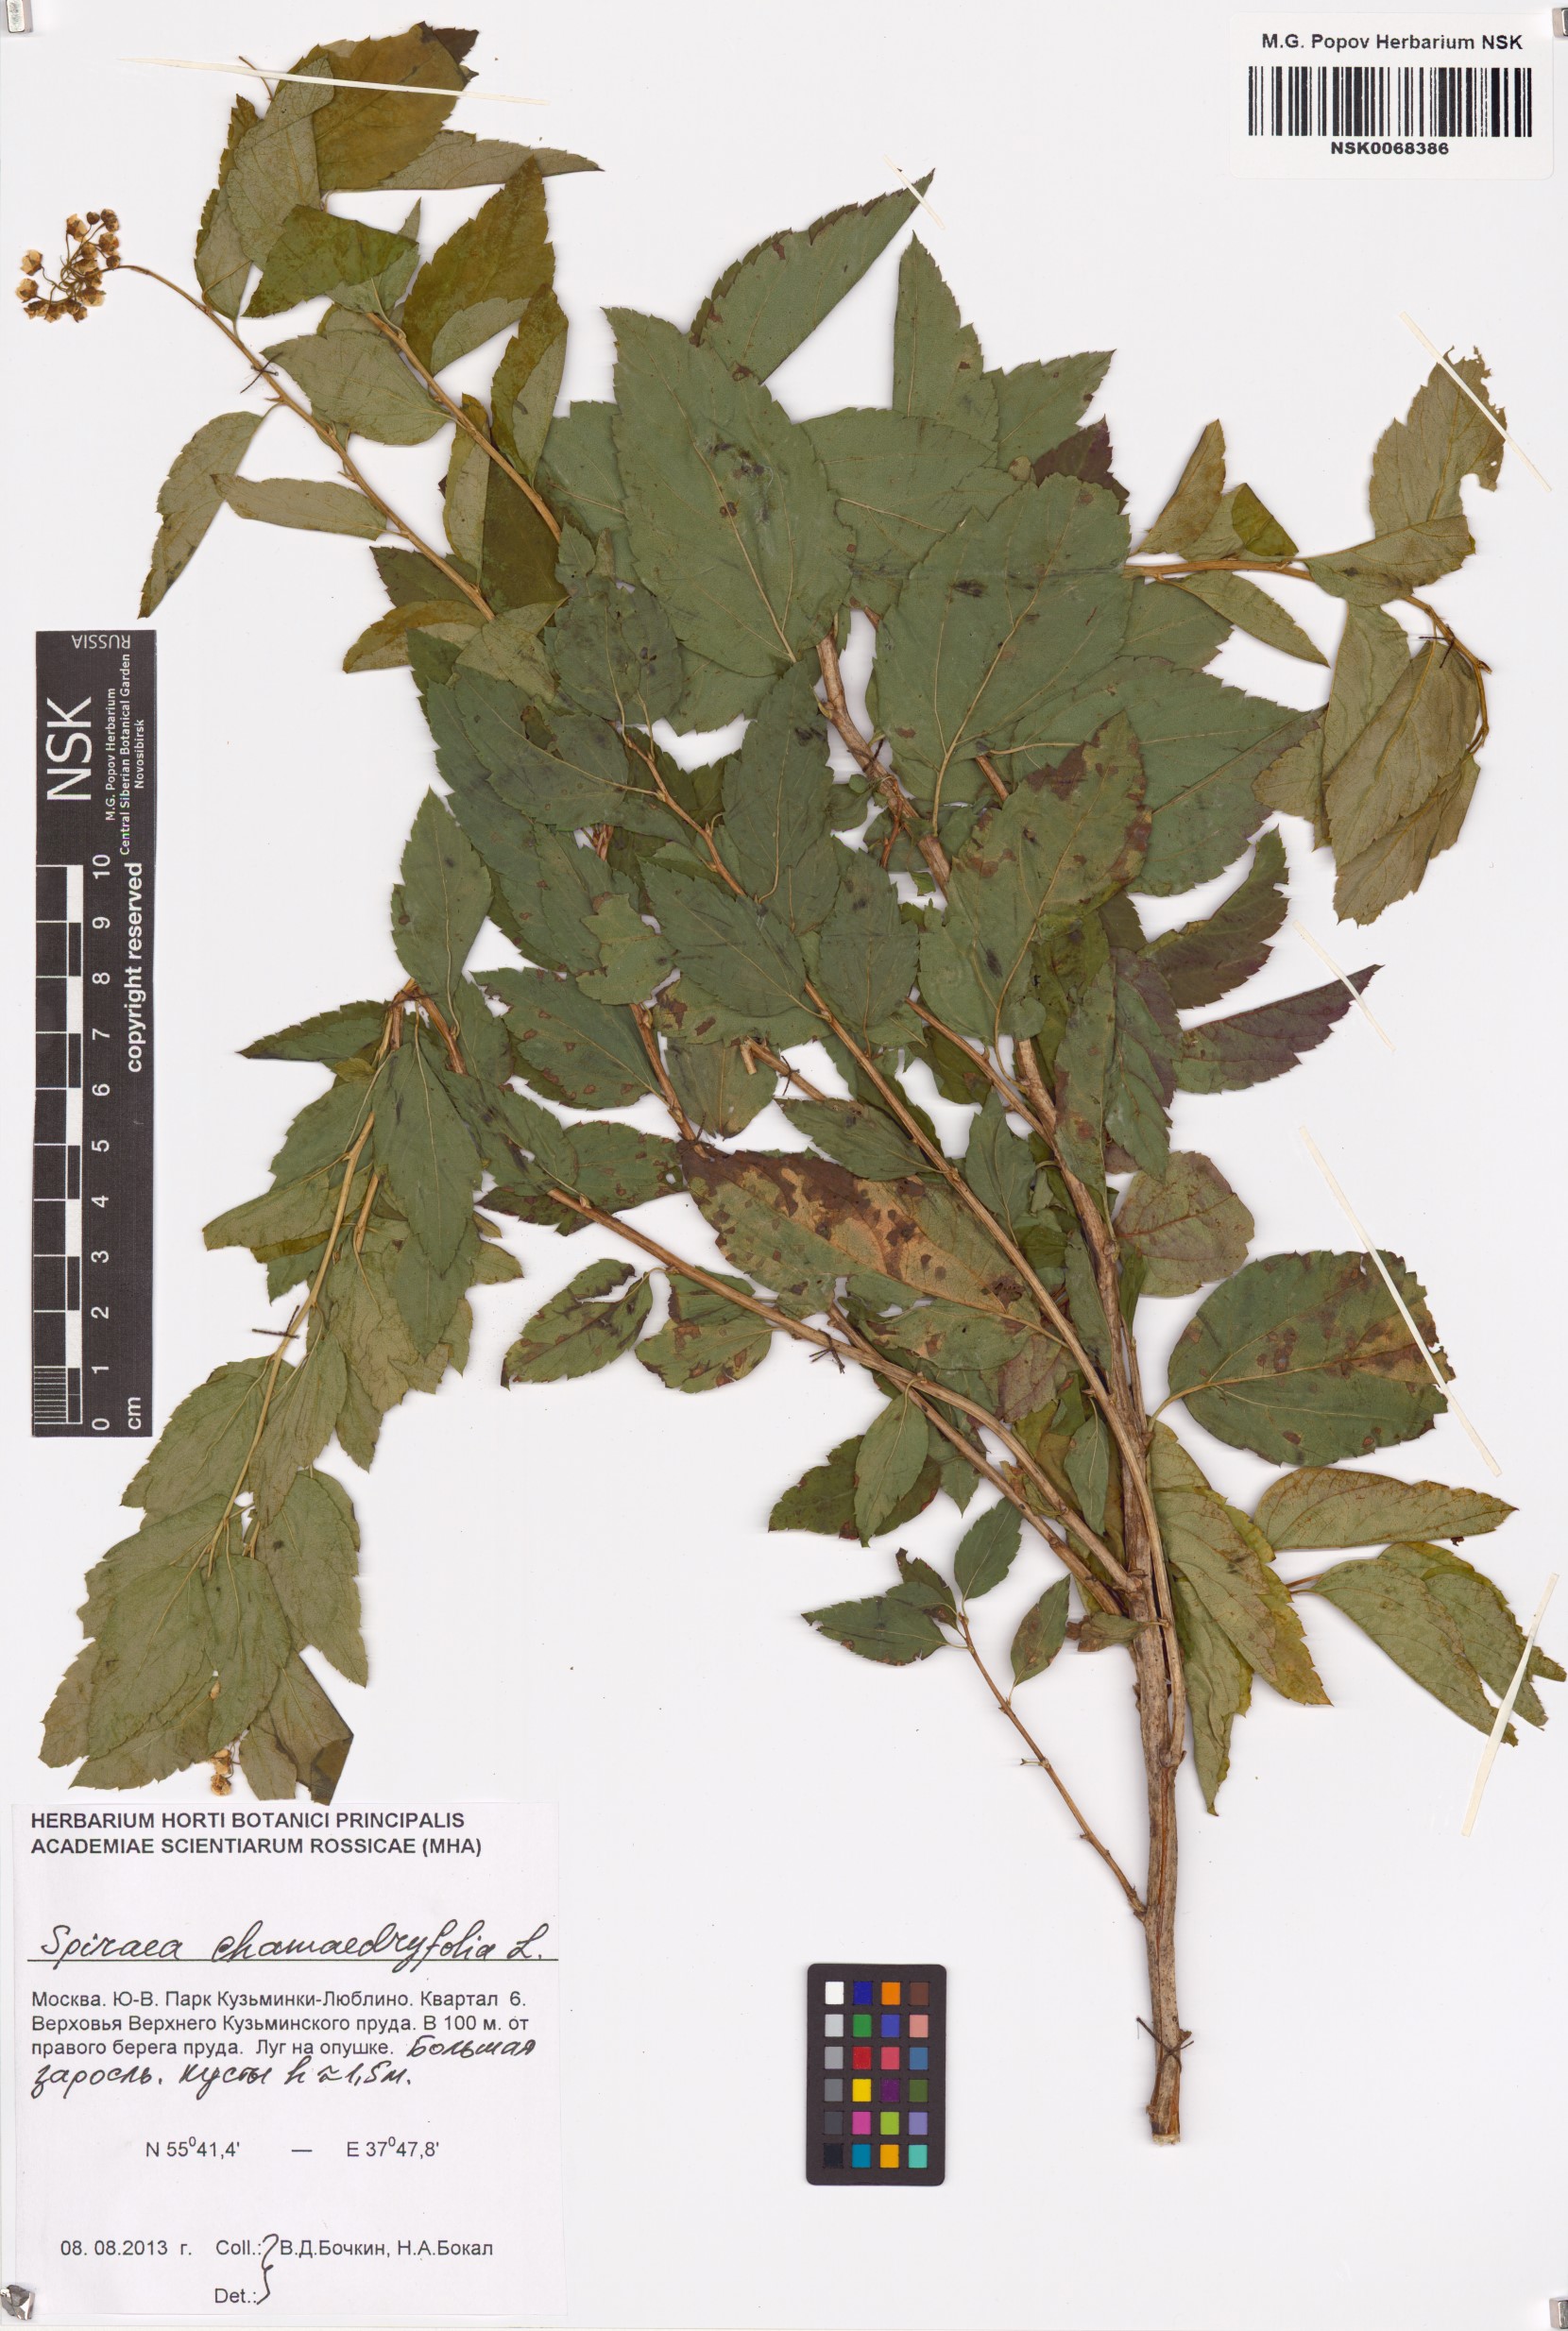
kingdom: Plantae
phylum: Tracheophyta
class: Magnoliopsida
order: Rosales
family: Rosaceae
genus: Spiraea
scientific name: Spiraea chamaedryfolia
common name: Elm-leaved spiraea
